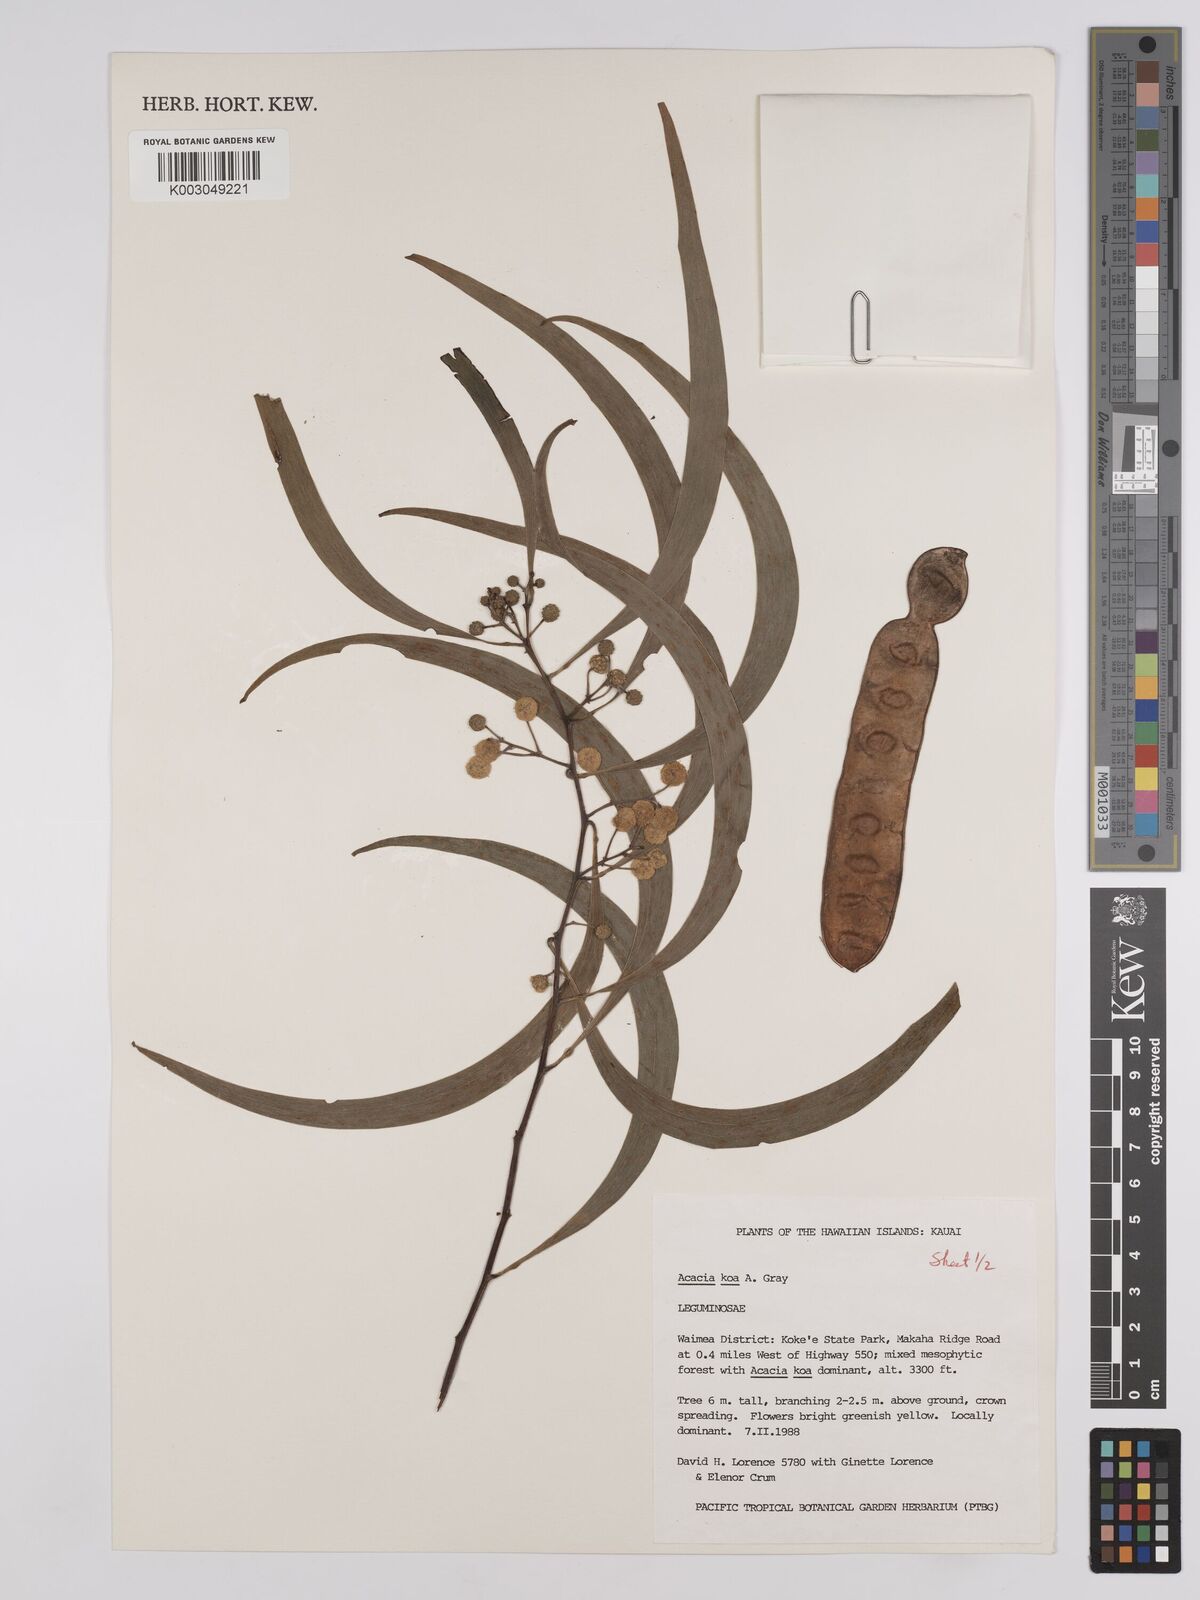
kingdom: Plantae
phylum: Tracheophyta
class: Magnoliopsida
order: Fabales
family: Fabaceae
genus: Acacia
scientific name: Acacia koa
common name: Gray koa
